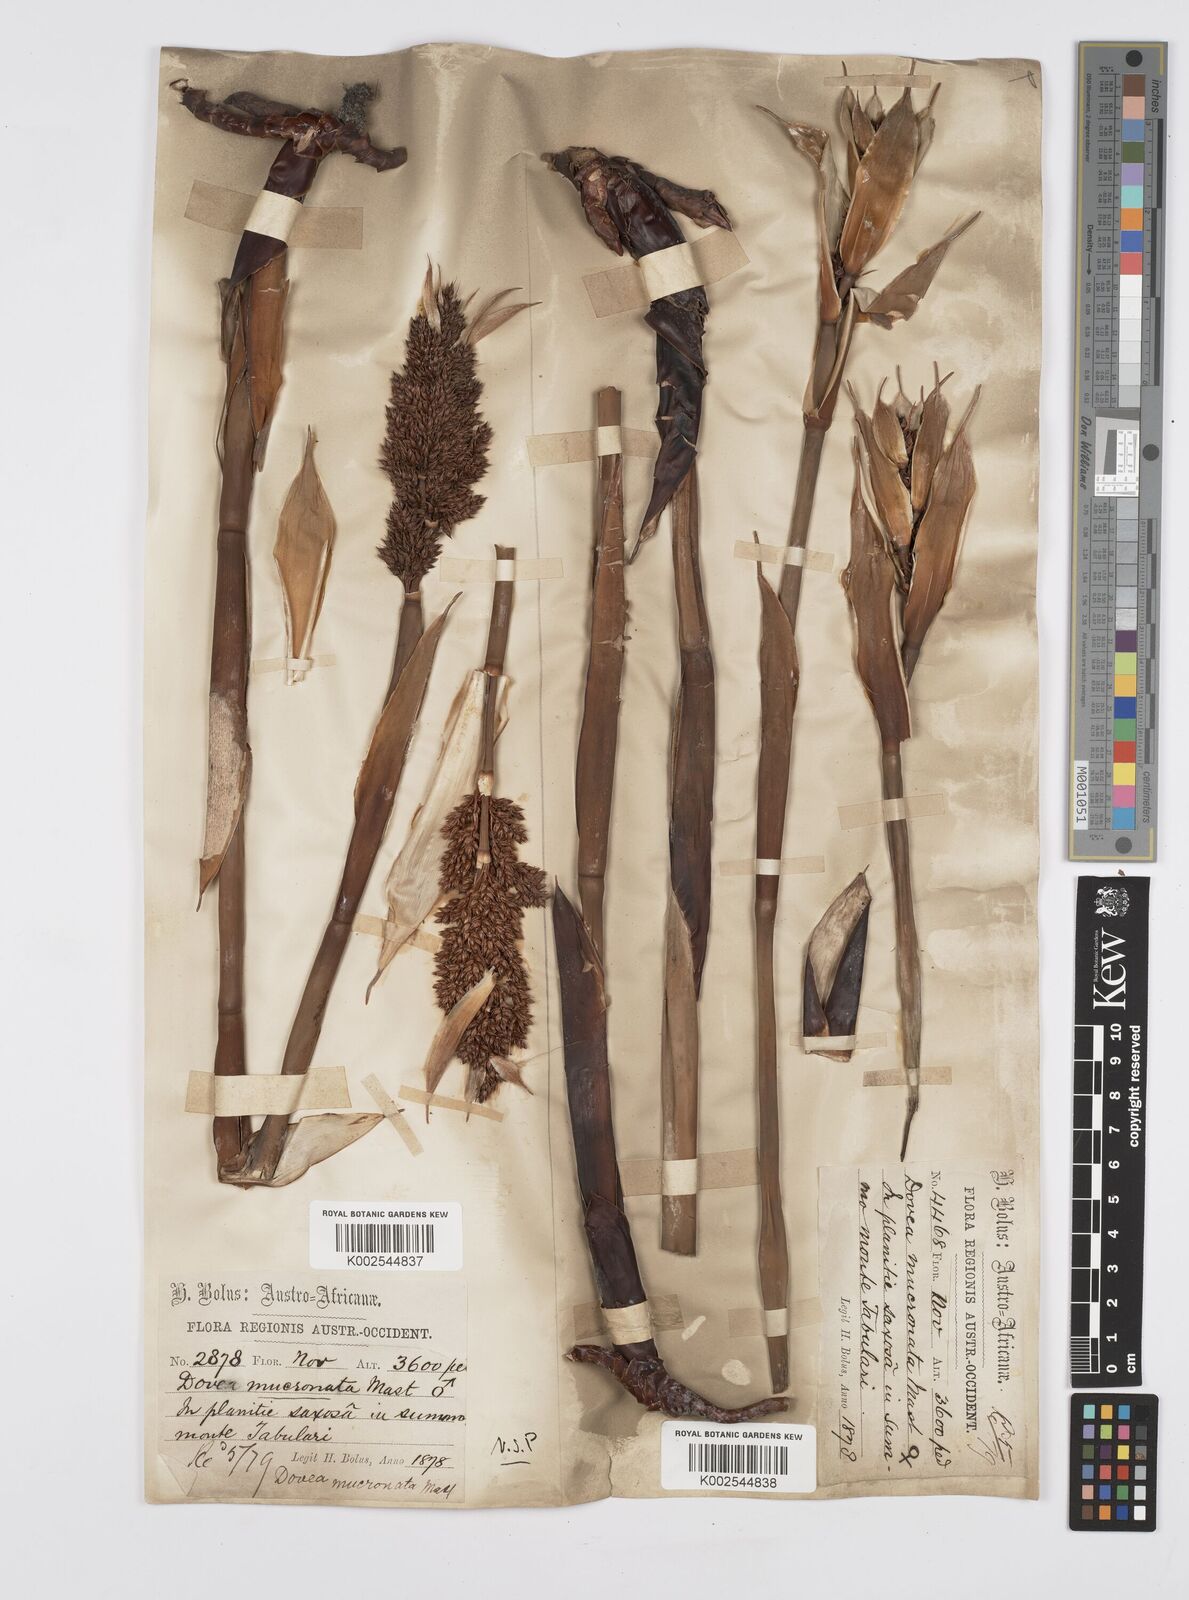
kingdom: Plantae
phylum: Tracheophyta
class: Liliopsida
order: Poales
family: Restionaceae
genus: Elegia
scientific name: Elegia mucronata
